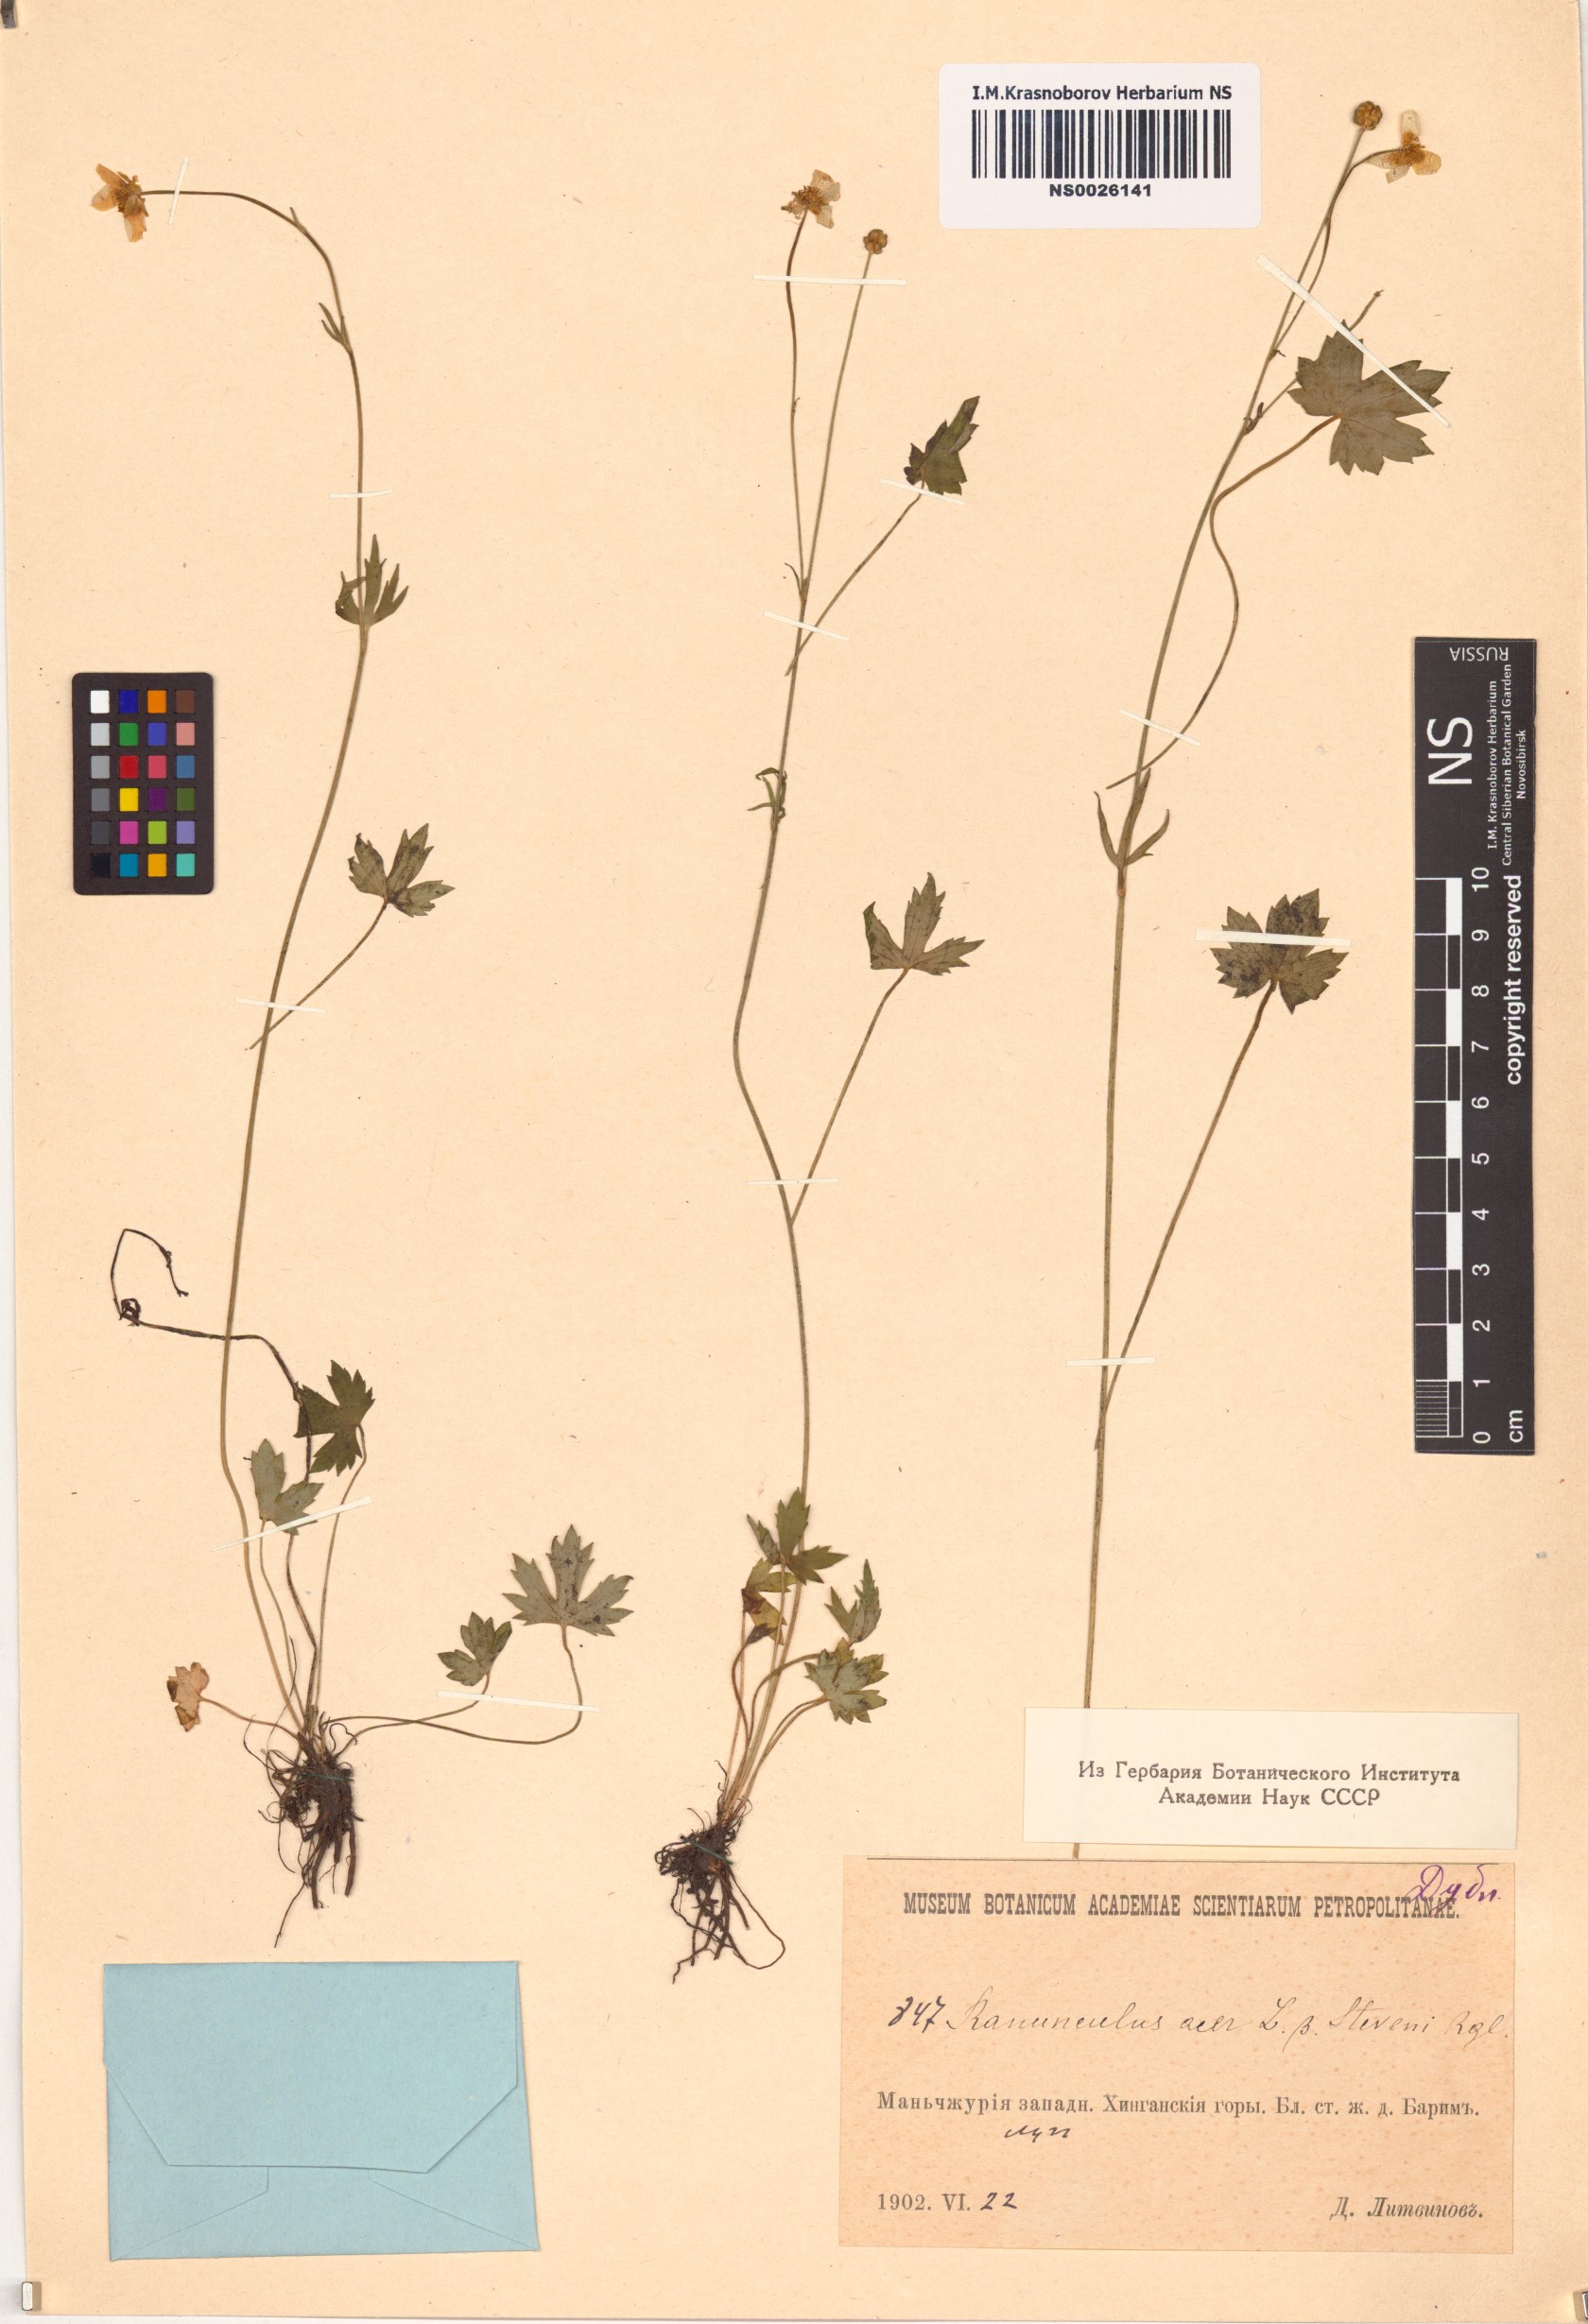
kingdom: Plantae
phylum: Tracheophyta
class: Magnoliopsida
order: Ranunculales
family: Ranunculaceae
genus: Ranunculus
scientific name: Ranunculus acris
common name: Meadow buttercup
